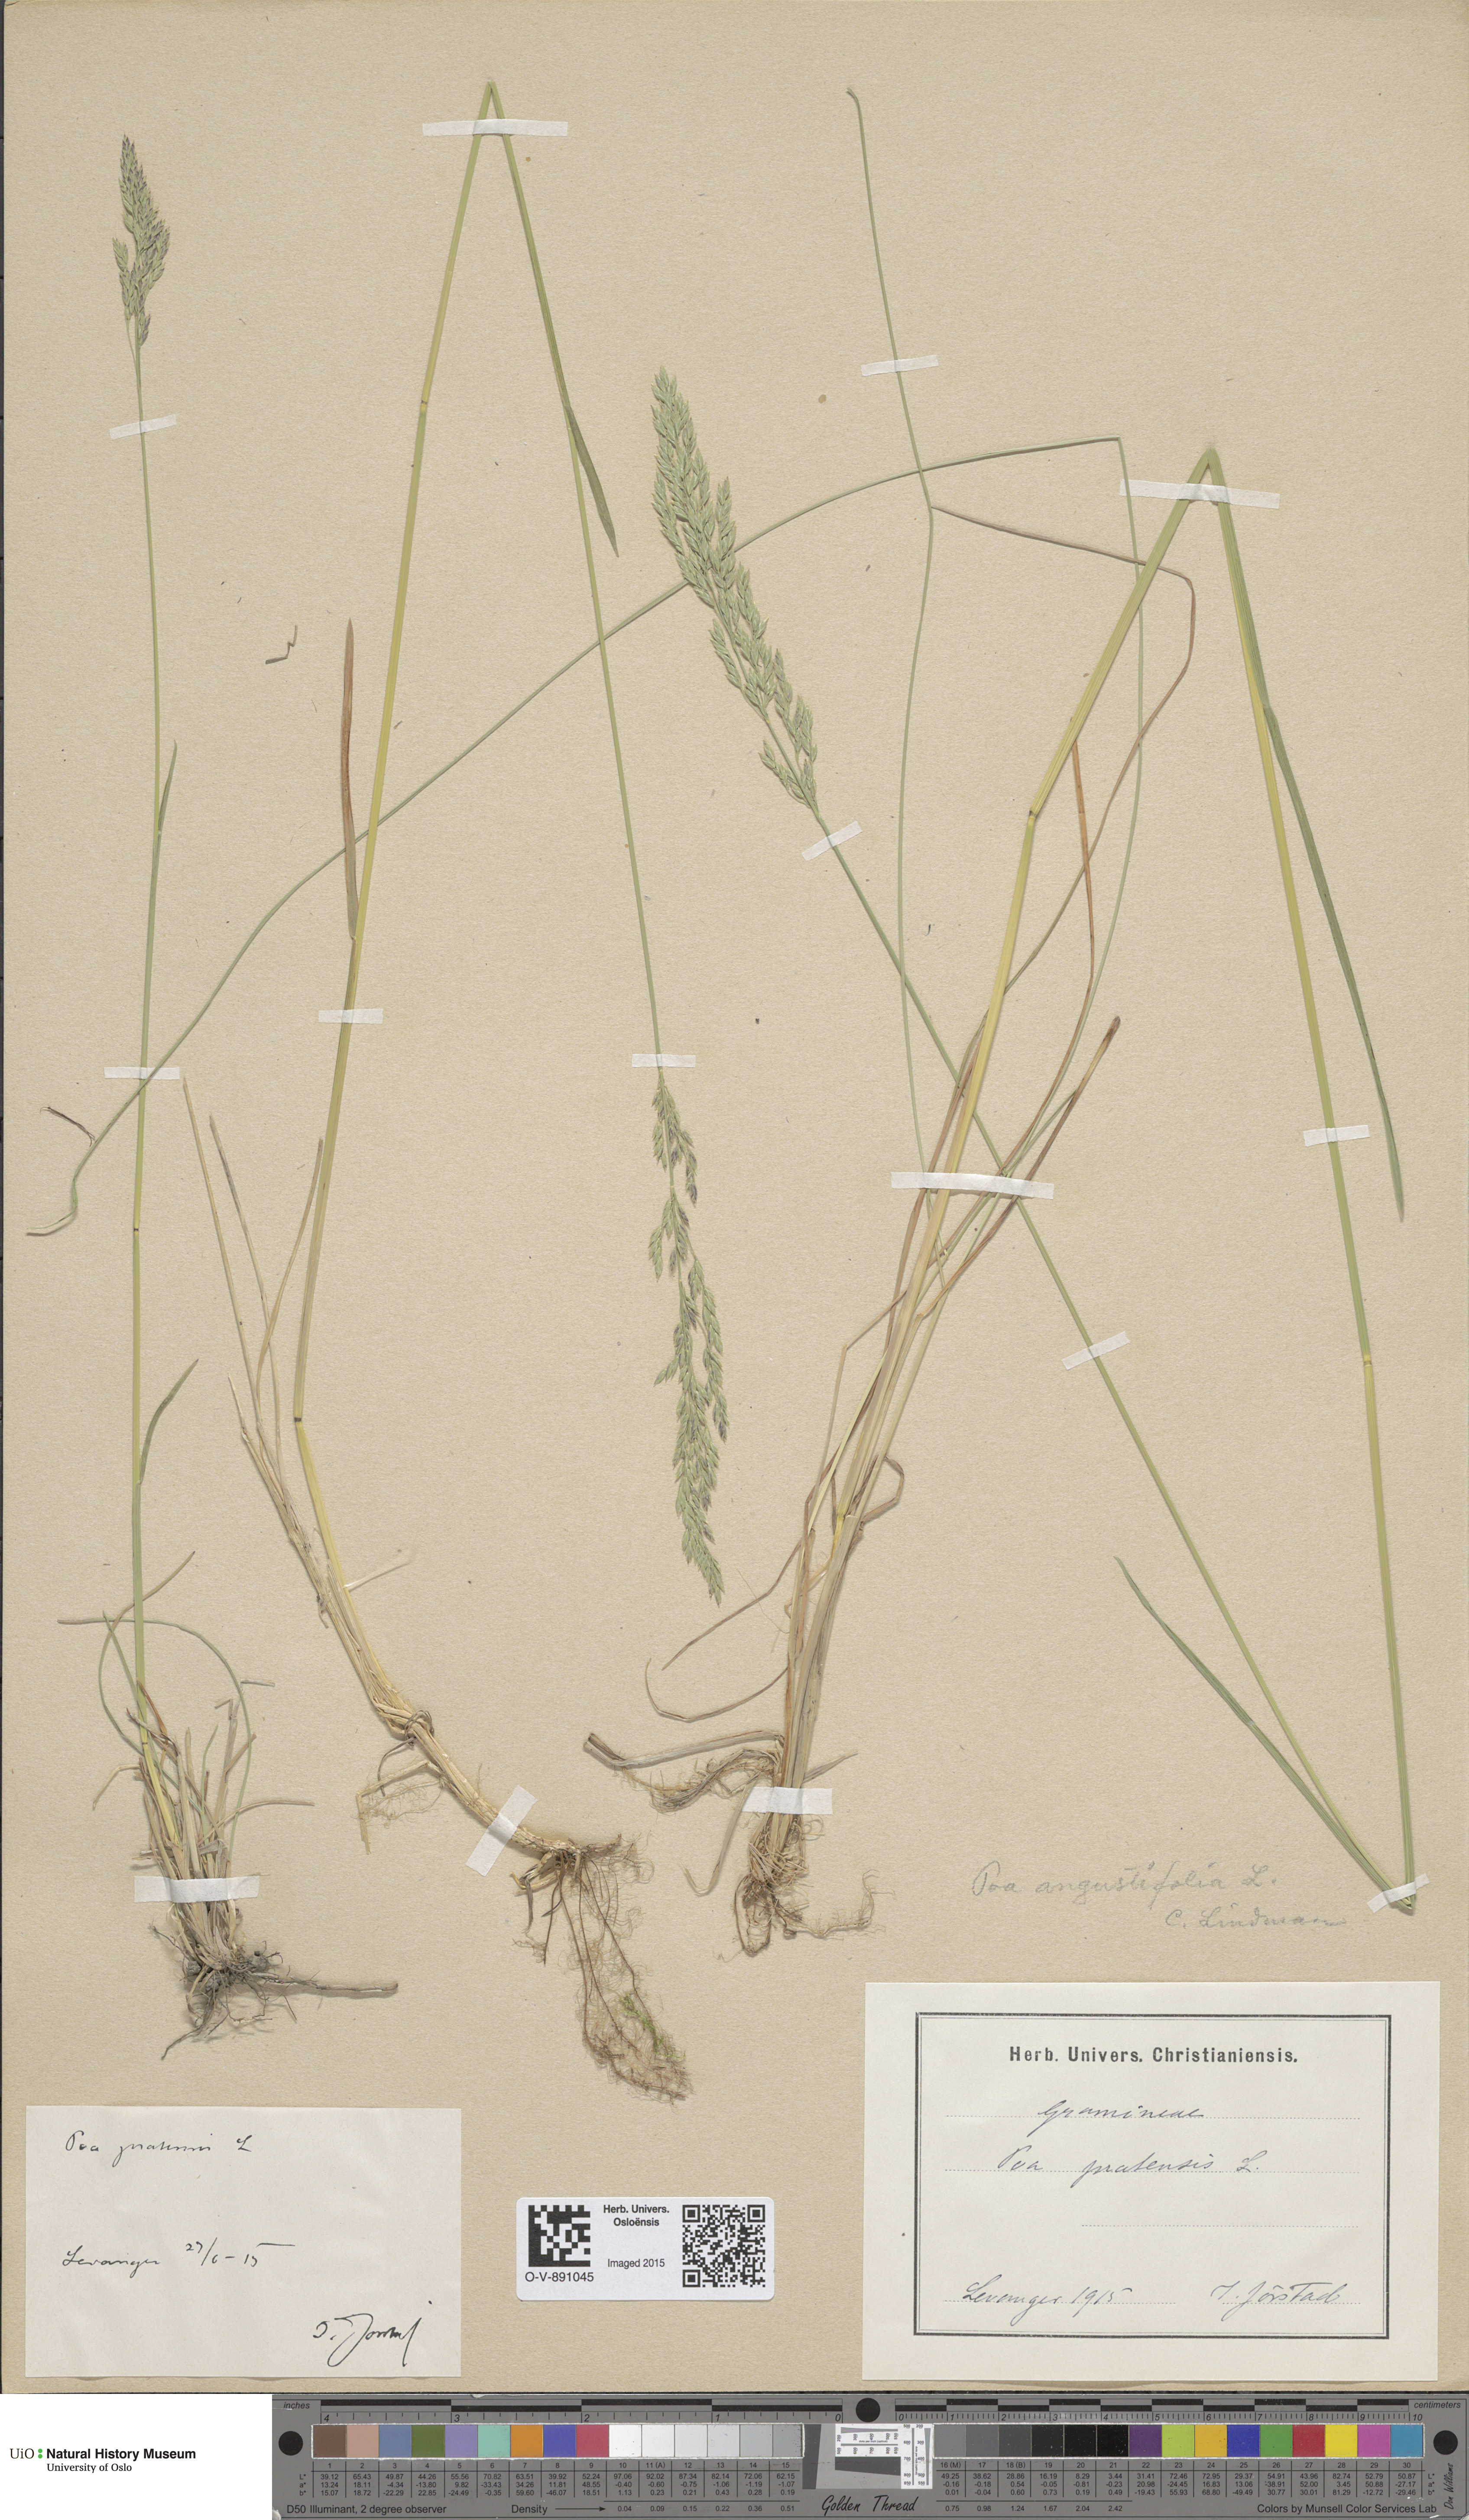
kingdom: Plantae
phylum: Tracheophyta
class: Liliopsida
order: Poales
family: Poaceae
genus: Poa
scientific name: Poa angustifolia
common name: Narrow-leaved meadow-grass
